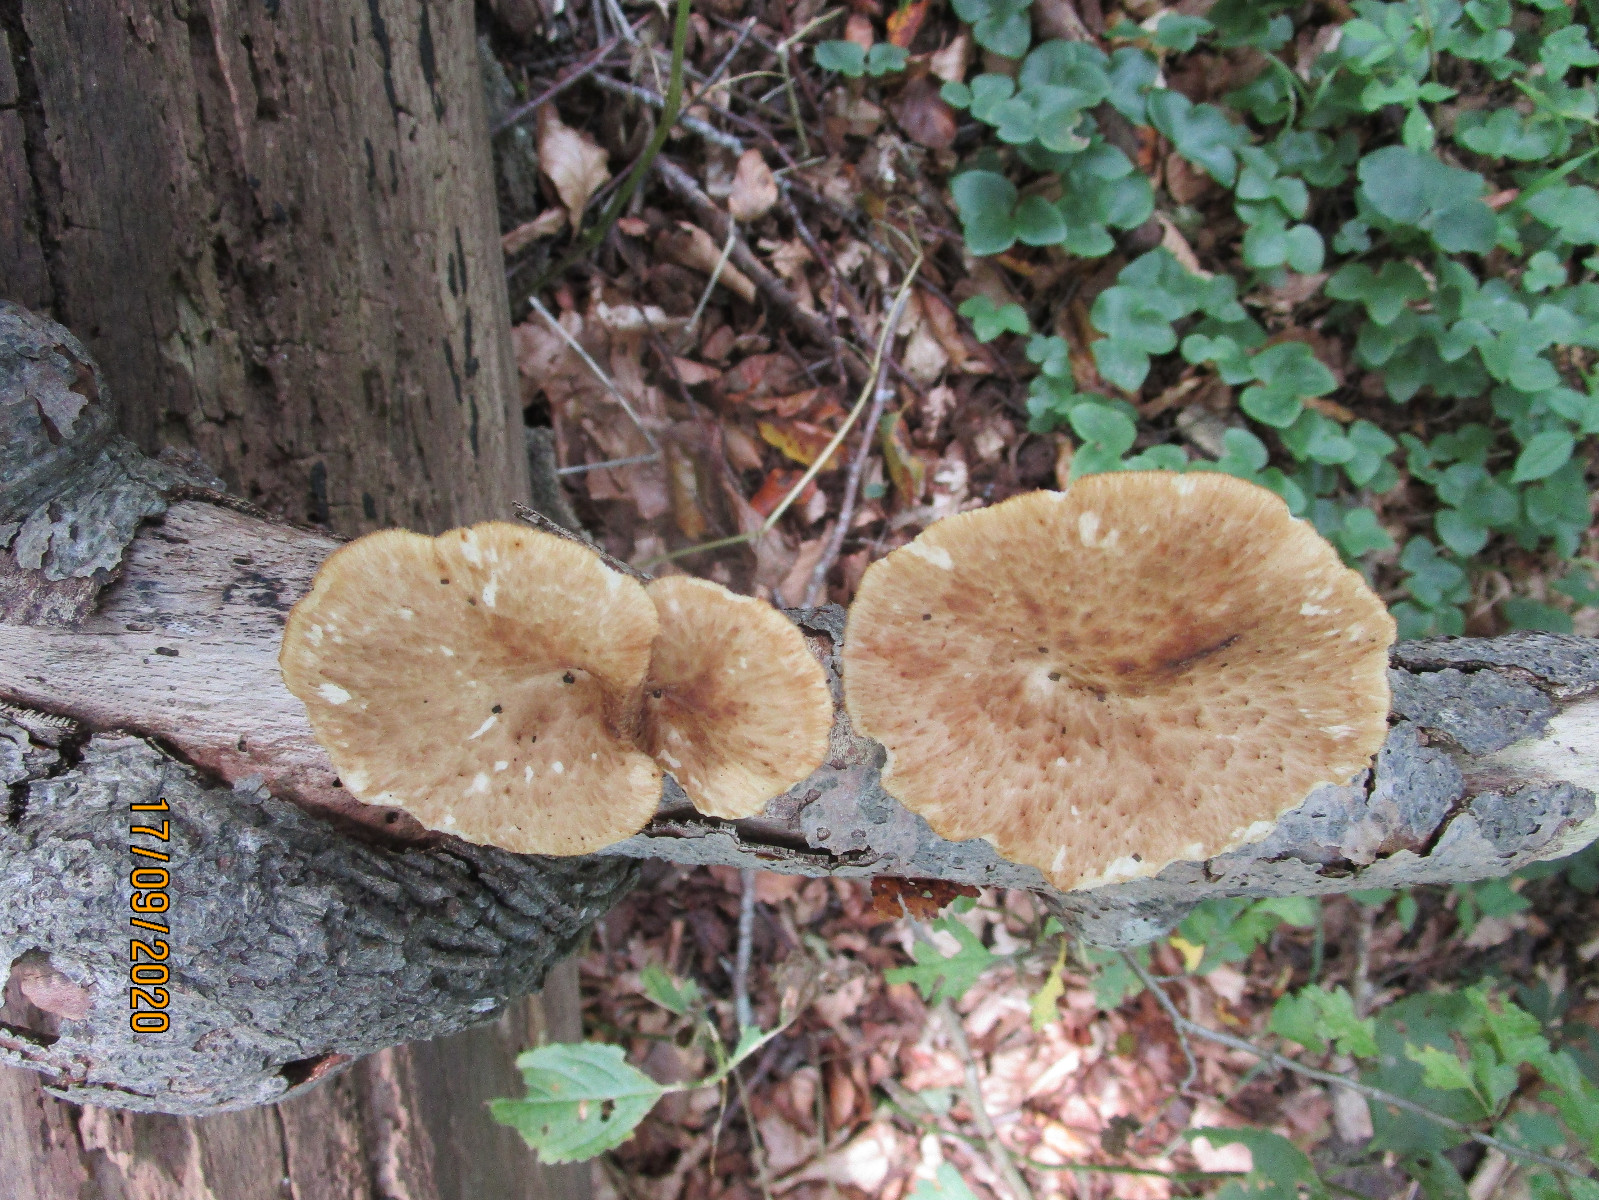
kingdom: Fungi
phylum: Basidiomycota
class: Agaricomycetes
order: Polyporales
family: Polyporaceae
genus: Polyporus
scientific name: Polyporus tuberaster
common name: knoldet stilkporesvamp
